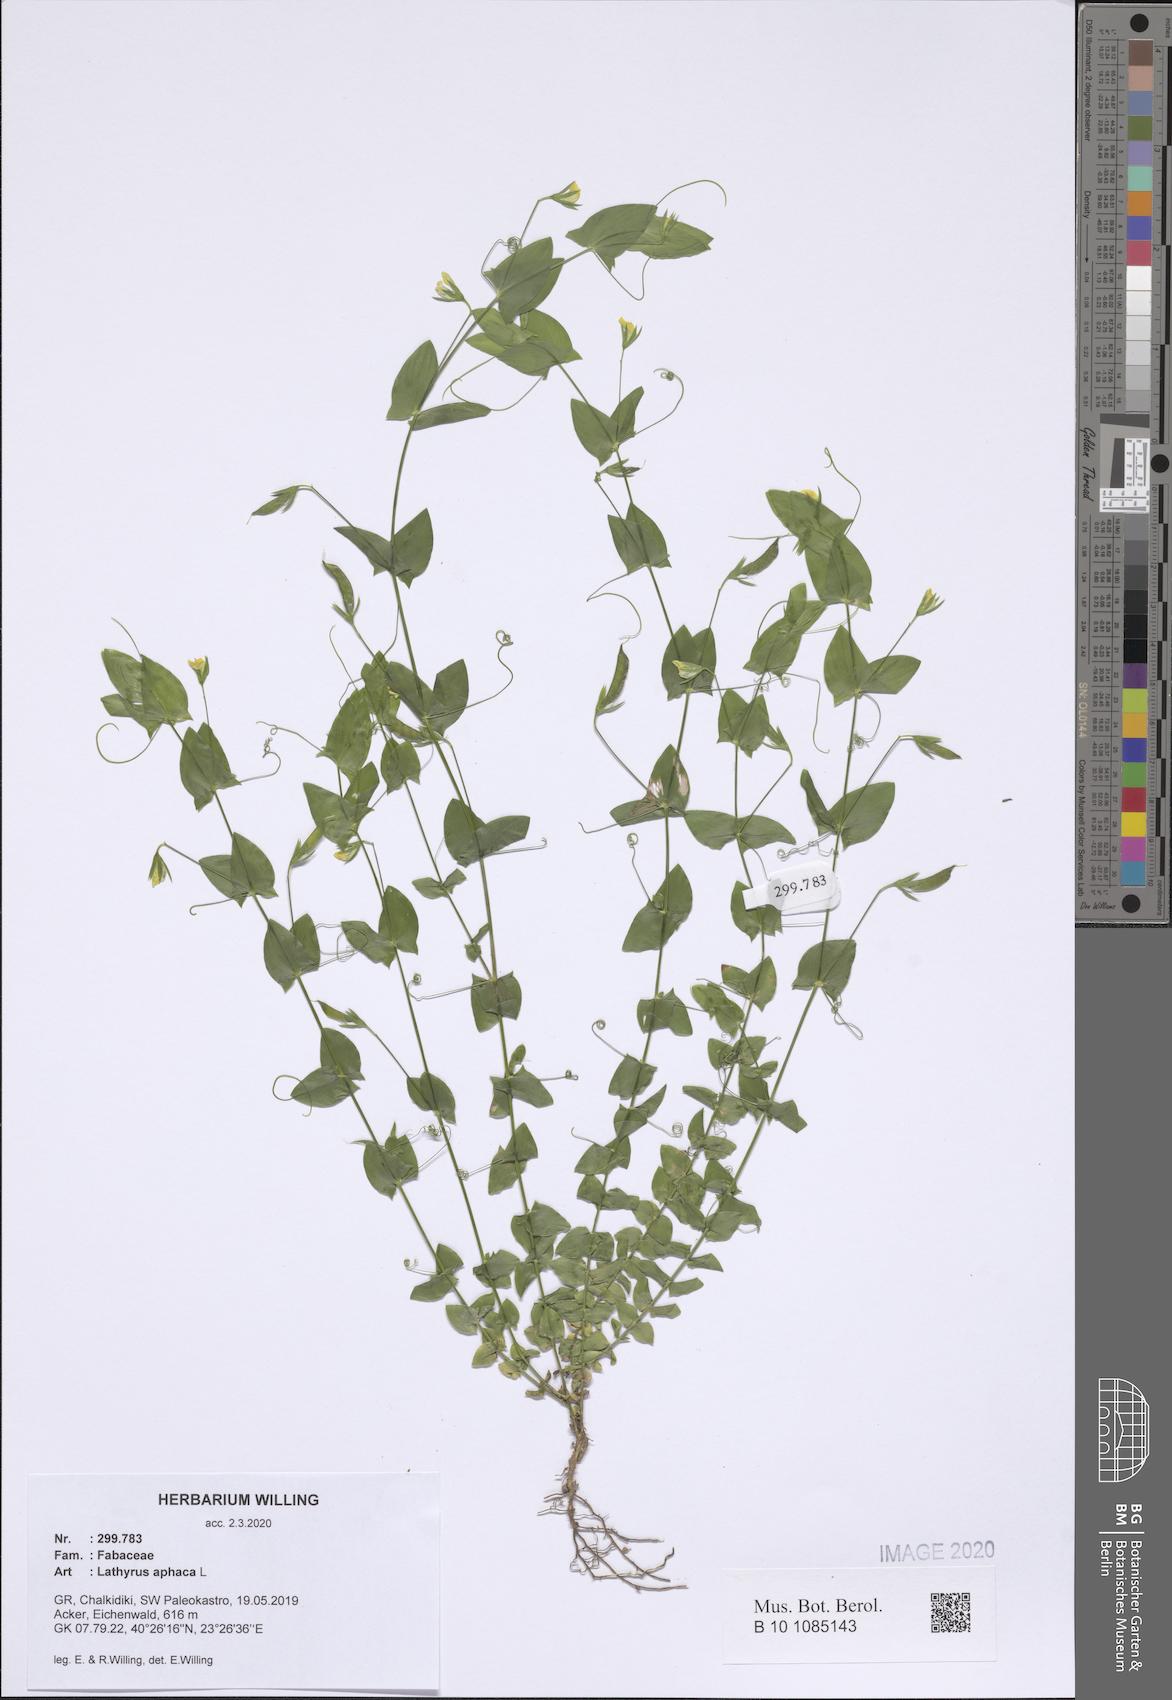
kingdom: Plantae
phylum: Tracheophyta
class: Magnoliopsida
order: Fabales
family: Fabaceae
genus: Lathyrus
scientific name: Lathyrus aphaca
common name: Yellow vetchling
